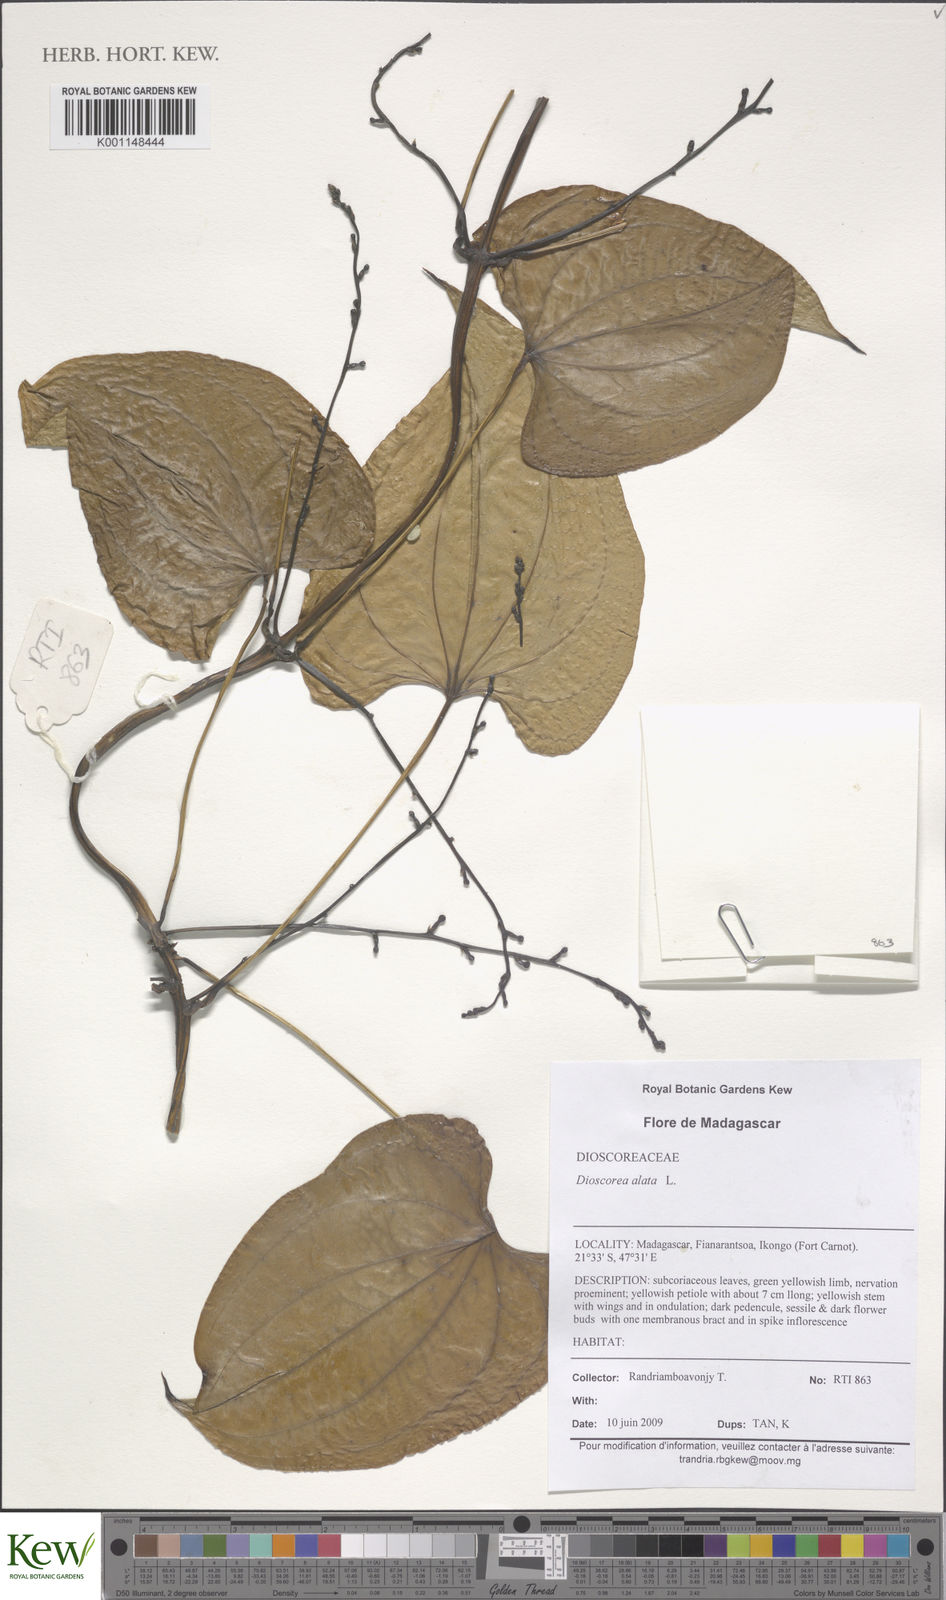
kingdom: Plantae
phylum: Tracheophyta
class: Liliopsida
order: Dioscoreales
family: Dioscoreaceae
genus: Dioscorea
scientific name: Dioscorea alata
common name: Water yam
